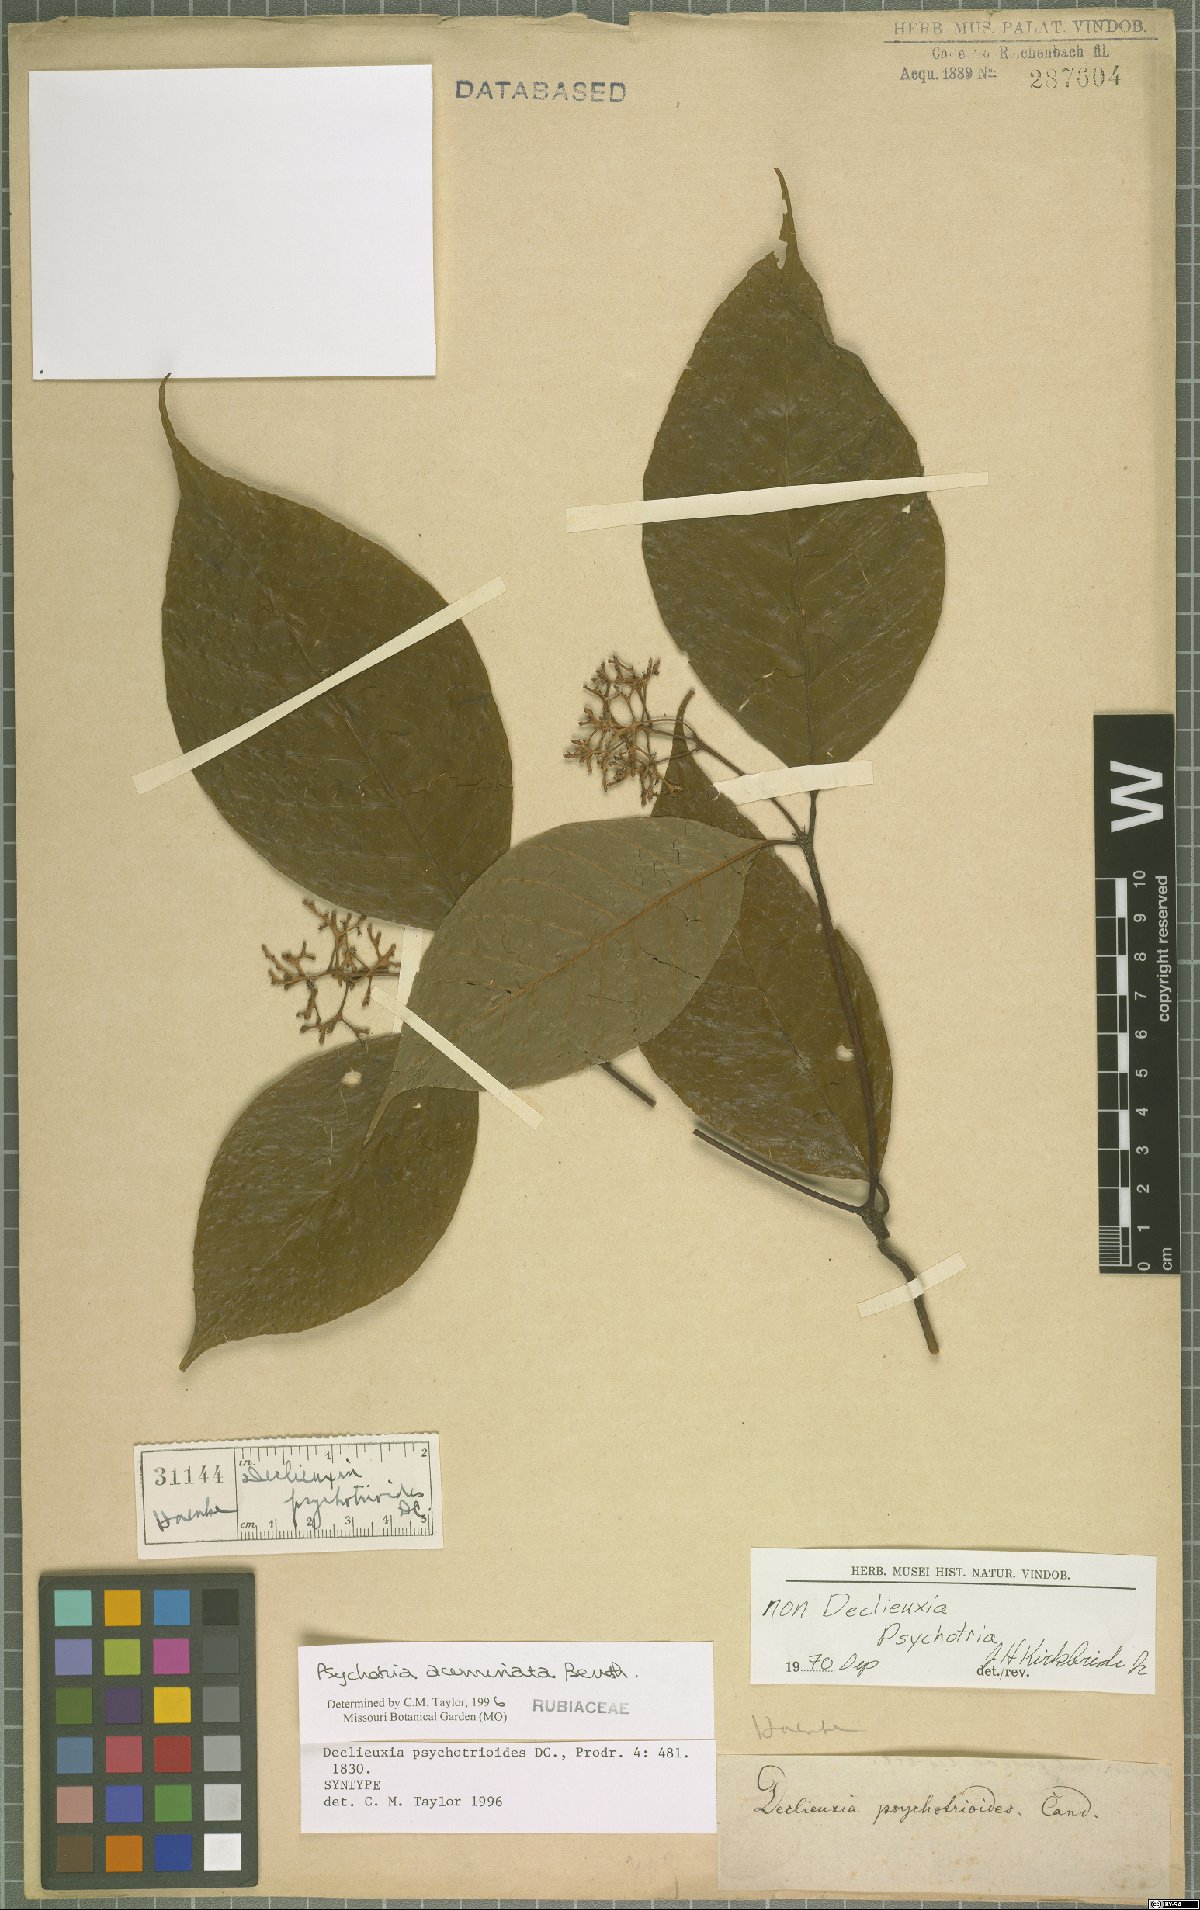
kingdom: Plantae
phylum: Tracheophyta
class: Magnoliopsida
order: Gentianales
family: Rubiaceae
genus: Palicourea
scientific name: Palicourea acuminata
